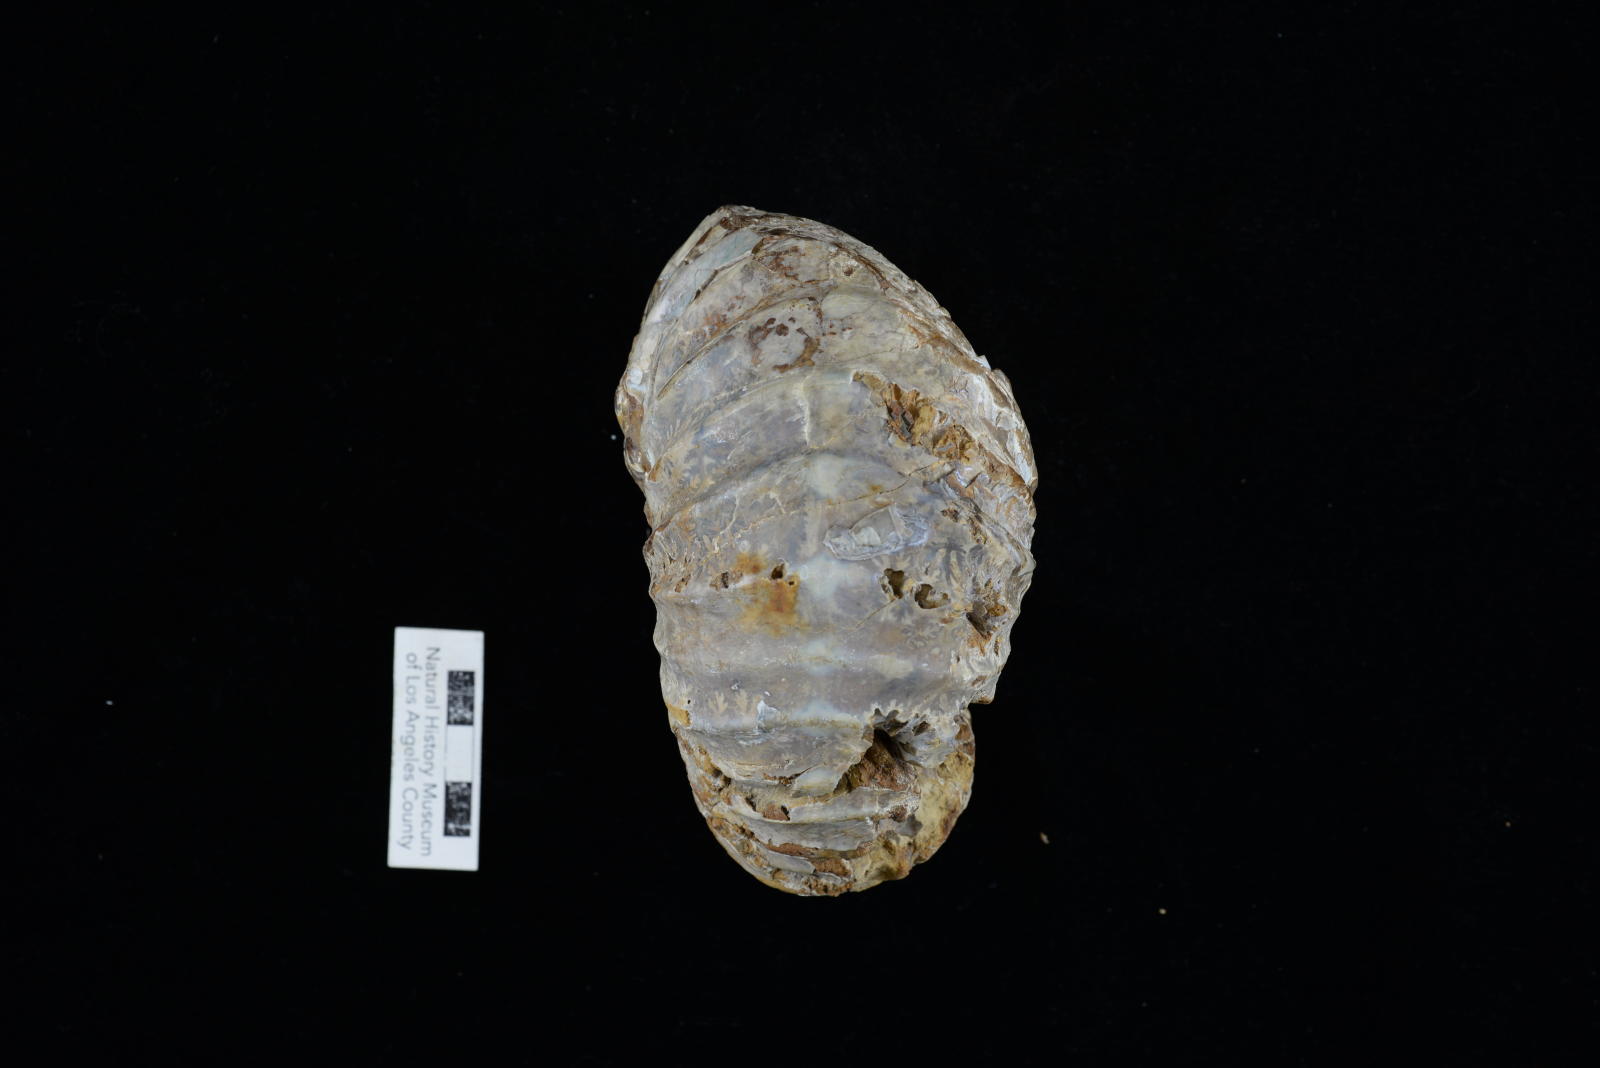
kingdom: Animalia
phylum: Mollusca
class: Cephalopoda
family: Pachydiscidae
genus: Eupachydiscus
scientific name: Eupachydiscus Pachydiscus teshioensis
